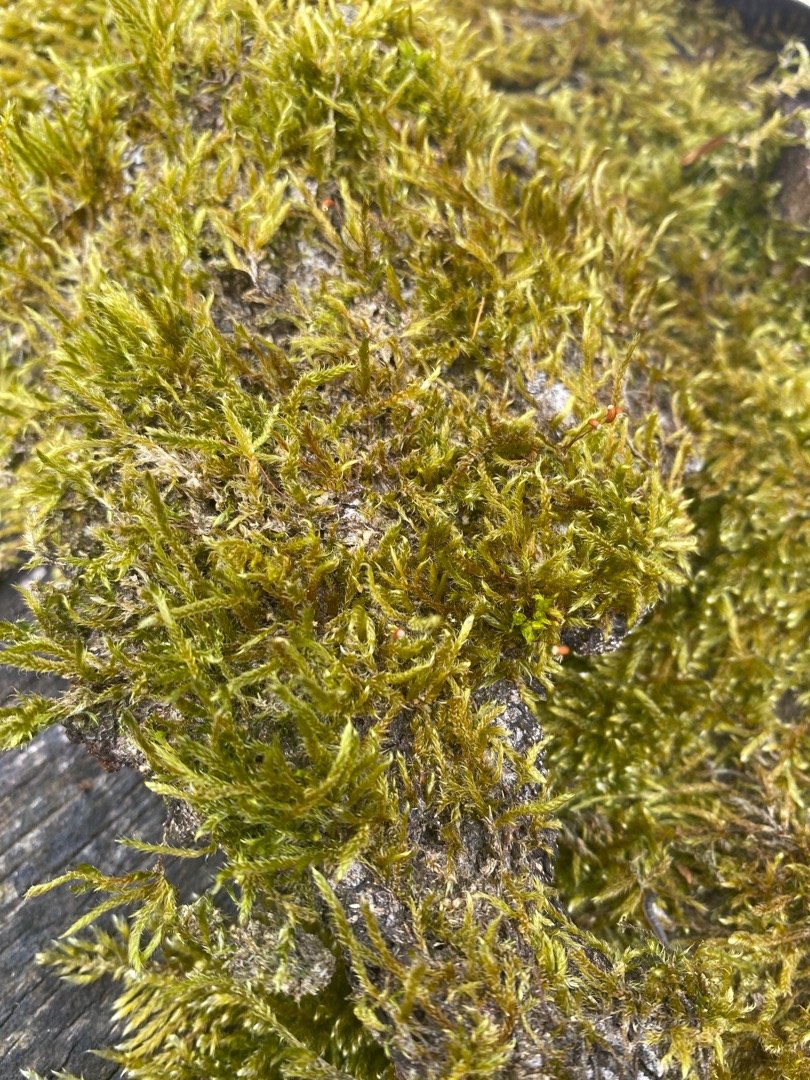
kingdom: Plantae
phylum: Bryophyta
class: Bryopsida
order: Hypnales
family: Hypnaceae
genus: Hypnum
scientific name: Hypnum cupressiforme
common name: Almindelig cypresmos
